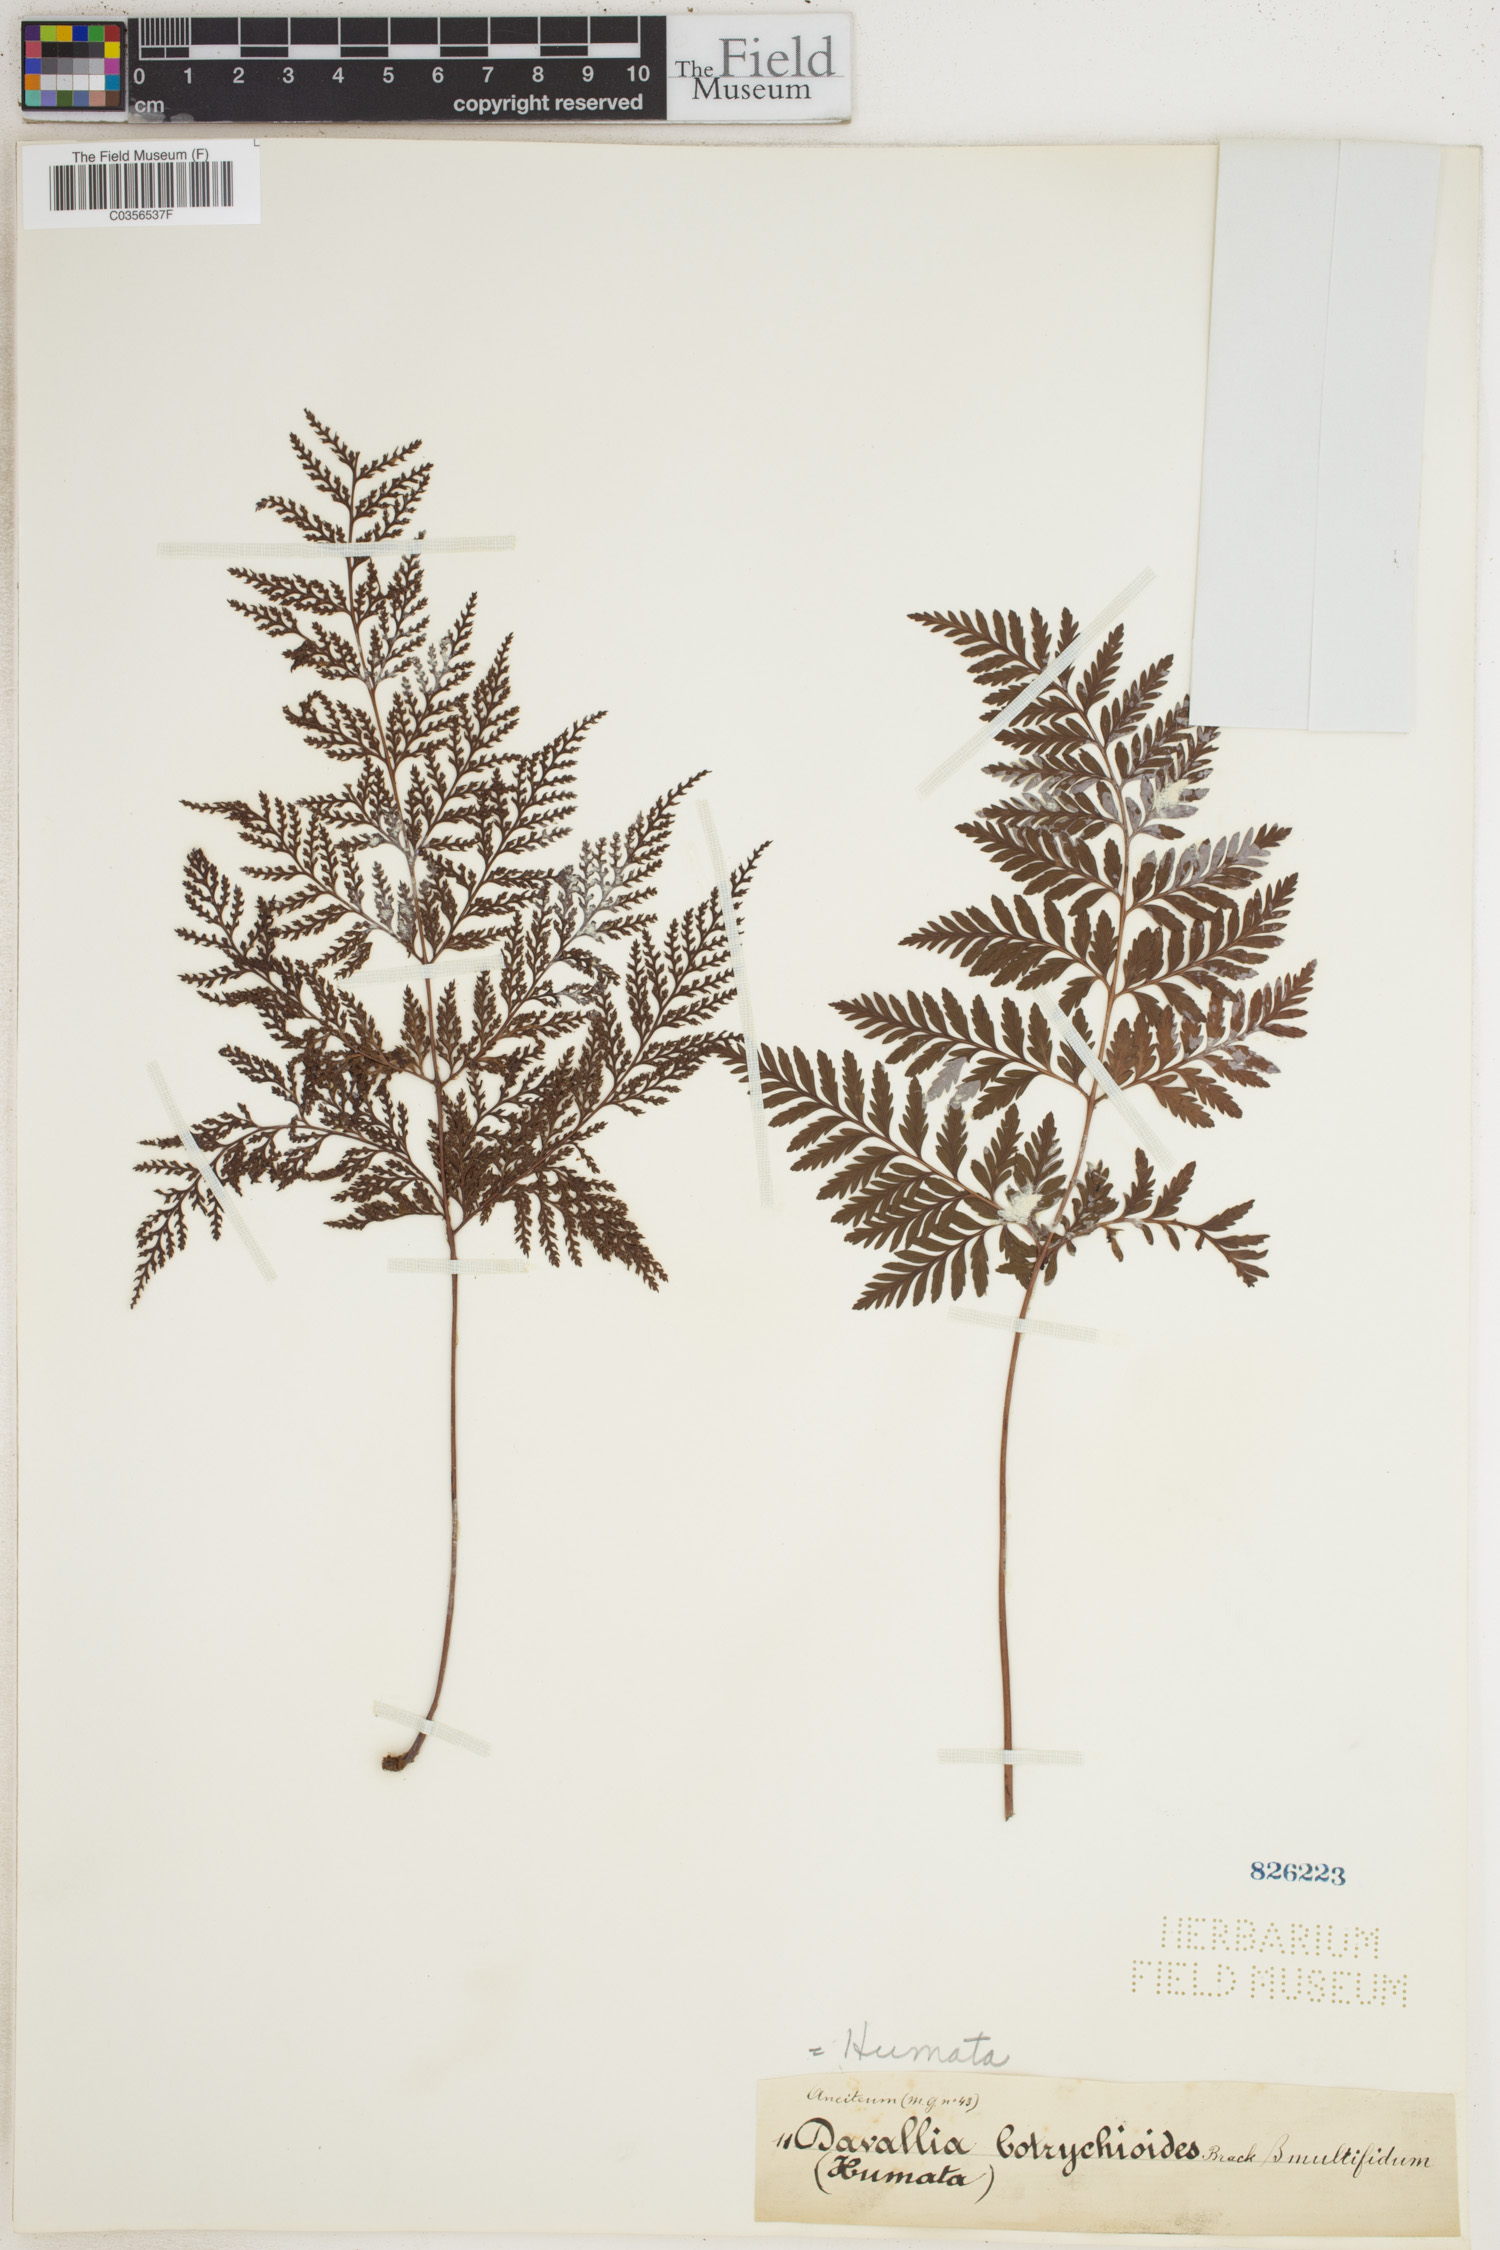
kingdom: Plantae
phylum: Tracheophyta
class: Polypodiopsida
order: Polypodiales
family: Davalliaceae
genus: Davallia
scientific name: Davallia
